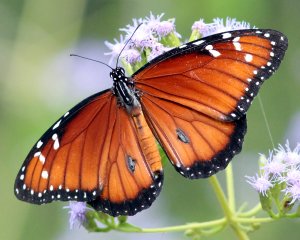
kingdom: Animalia
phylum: Arthropoda
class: Insecta
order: Lepidoptera
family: Nymphalidae
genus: Danaus
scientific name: Danaus eresimus
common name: Soldier
